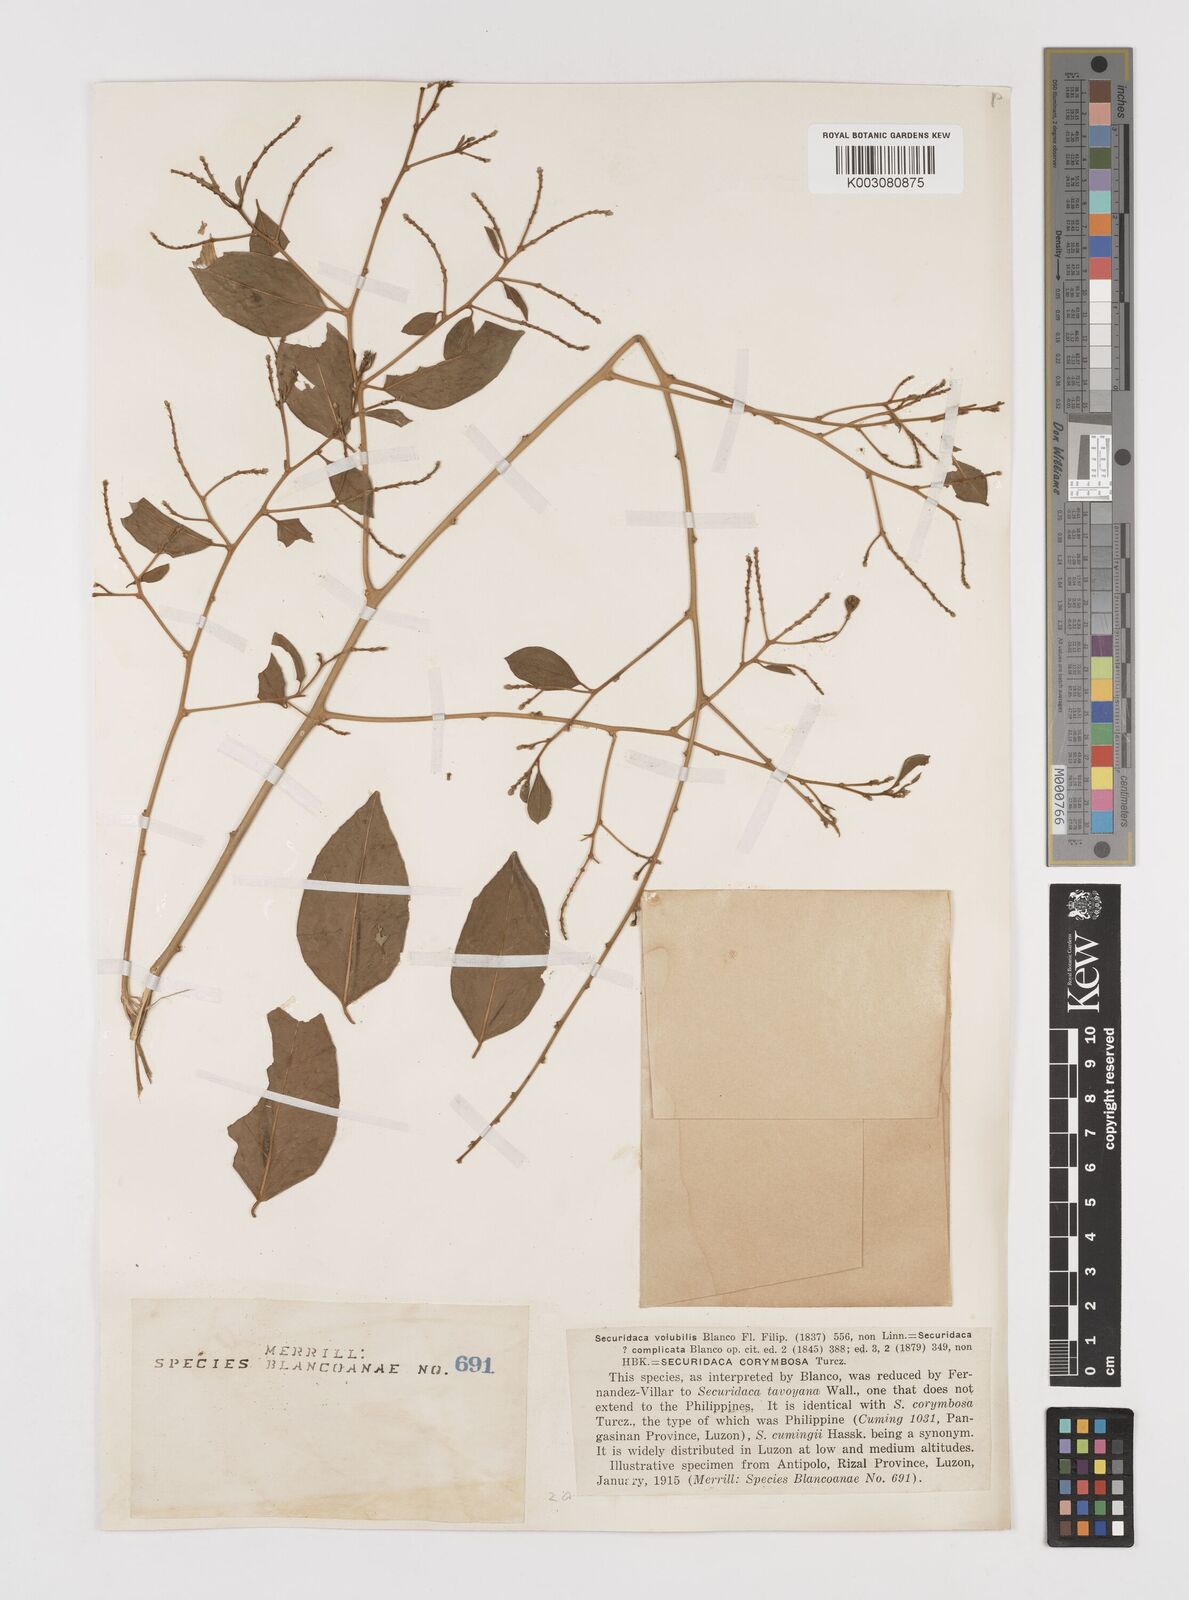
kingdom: Plantae
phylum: Tracheophyta
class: Magnoliopsida
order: Fabales
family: Polygalaceae
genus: Securidaca
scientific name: Securidaca inappendiculata
